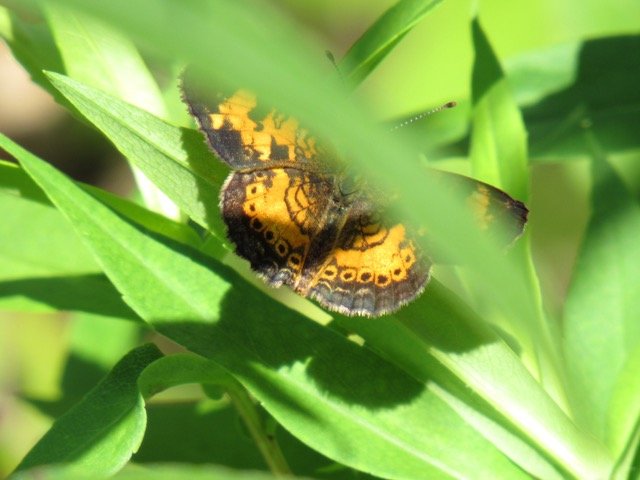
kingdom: Animalia
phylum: Arthropoda
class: Insecta
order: Lepidoptera
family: Nymphalidae
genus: Phyciodes
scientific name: Phyciodes tharos
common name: Pearl Crescent
